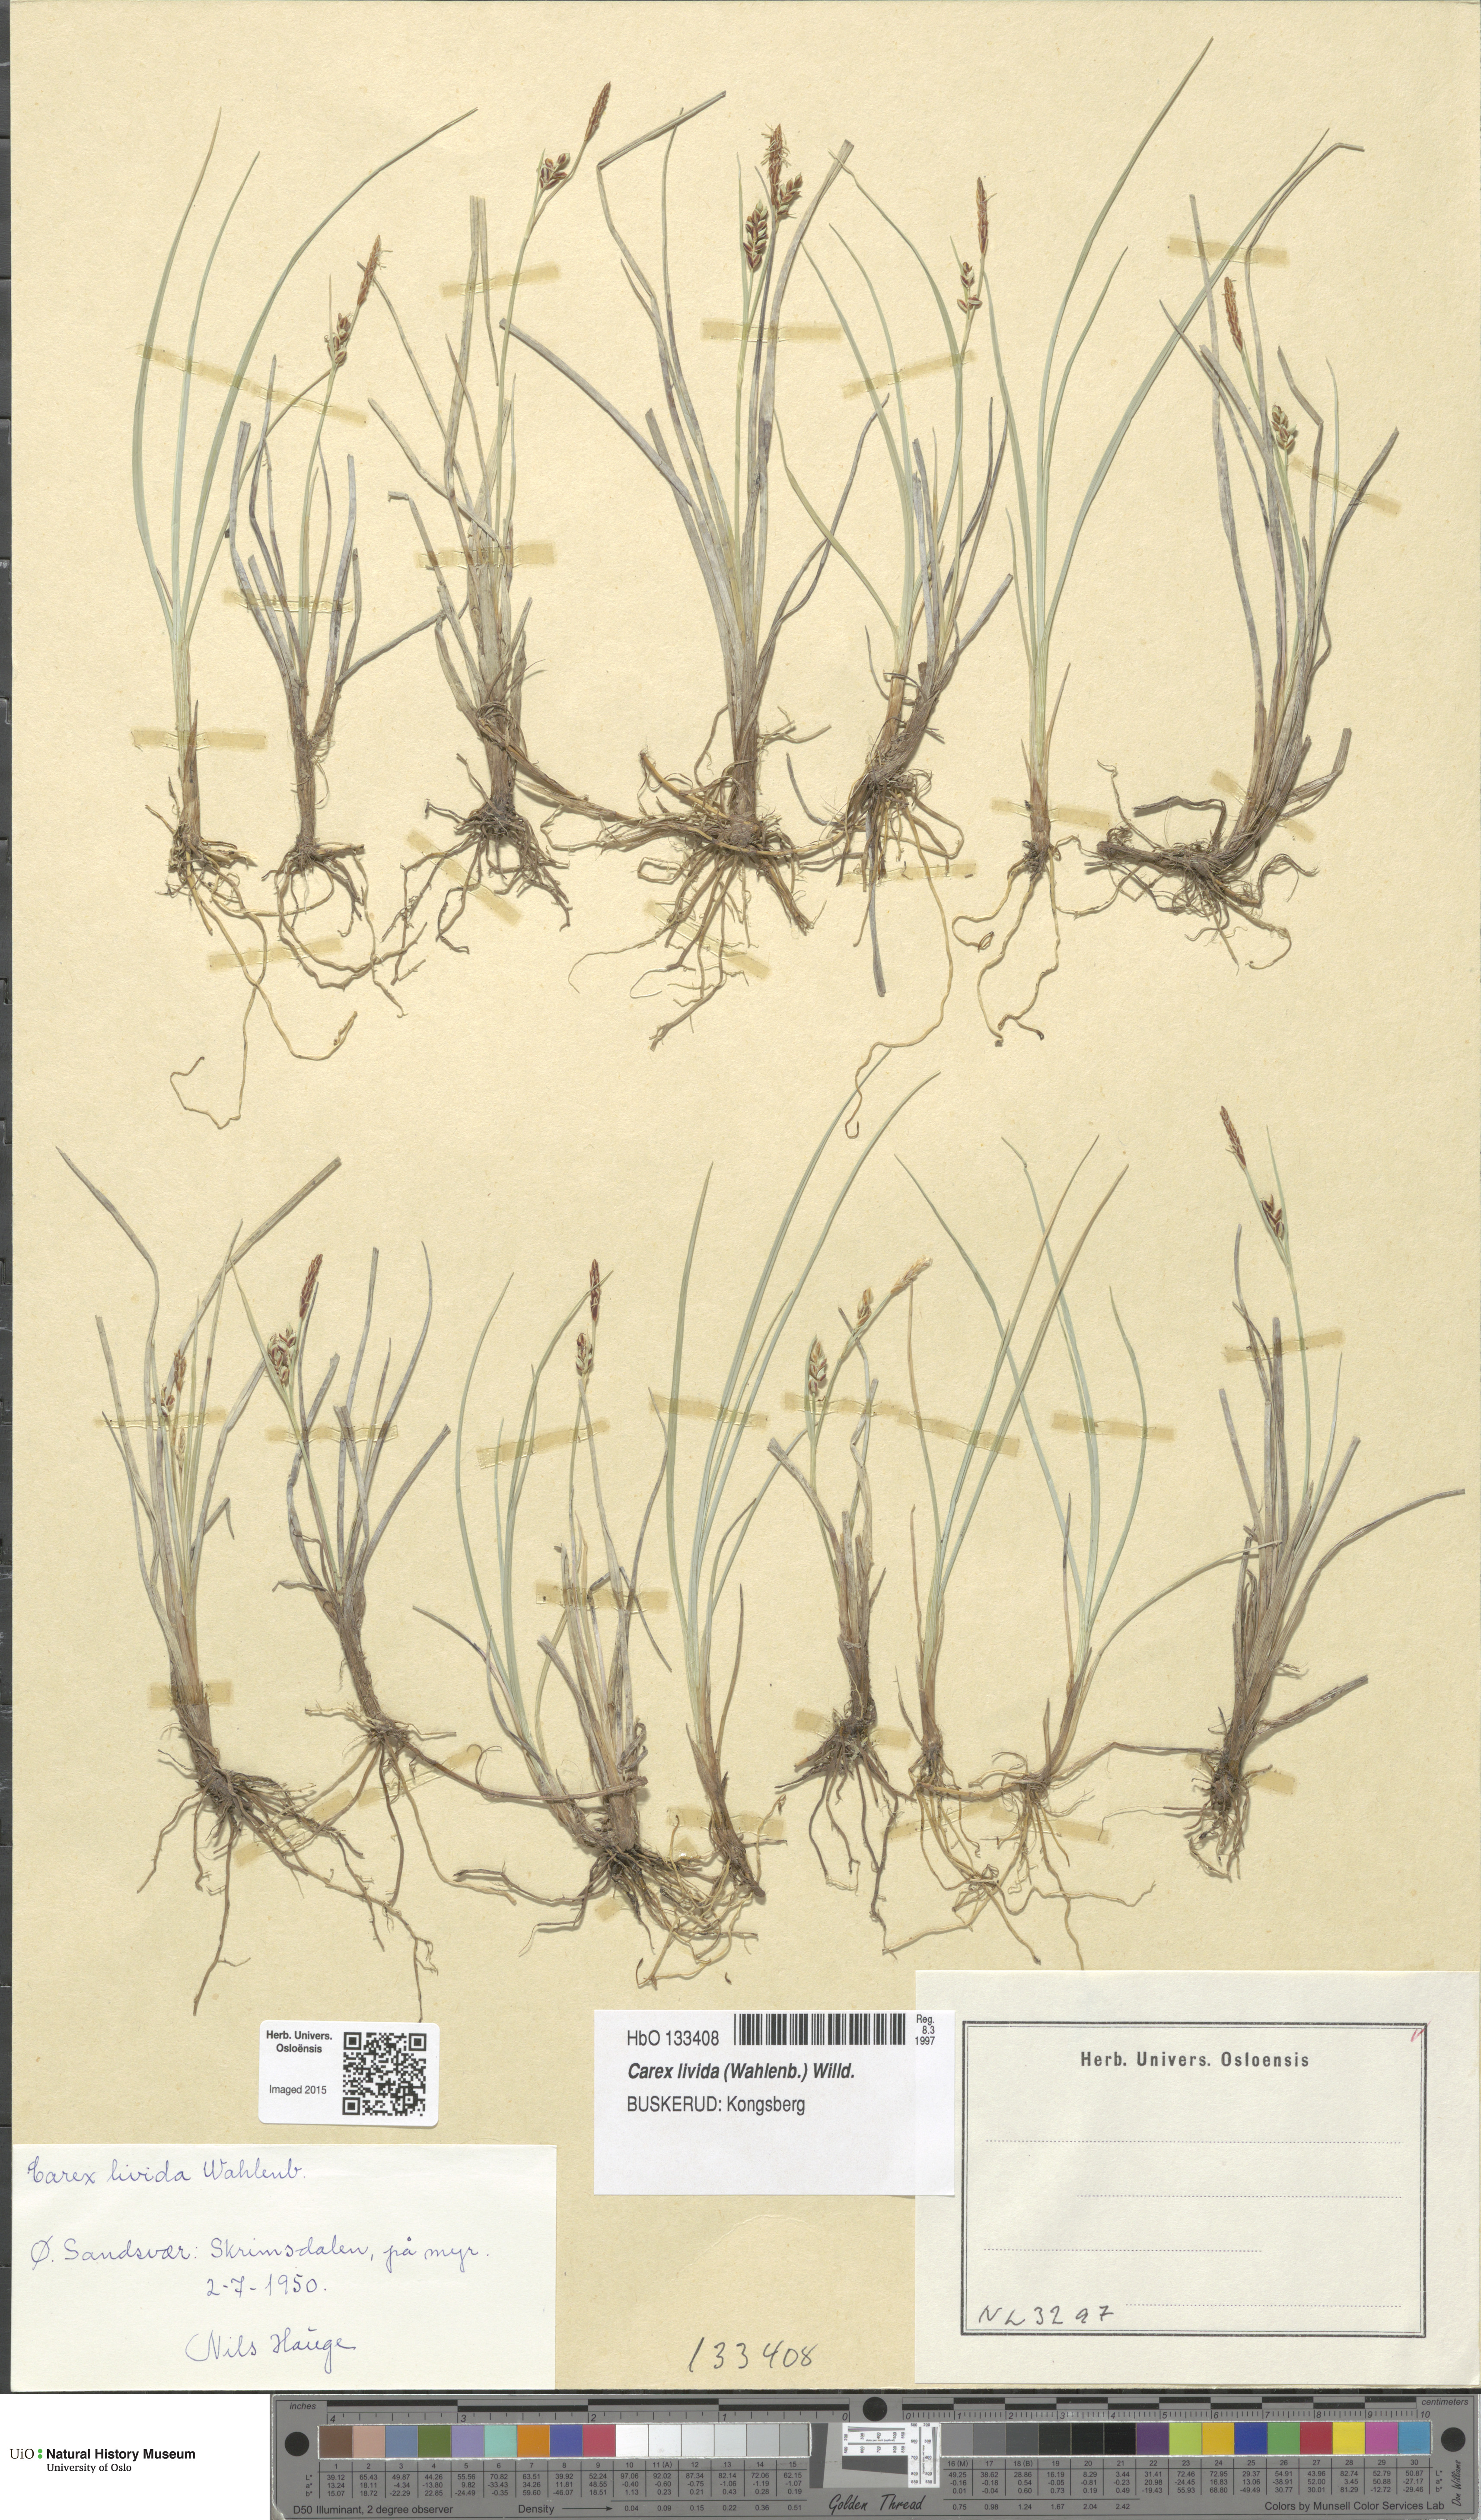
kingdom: Plantae
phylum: Tracheophyta
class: Liliopsida
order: Poales
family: Cyperaceae
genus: Carex
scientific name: Carex livida
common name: Livid sedge
